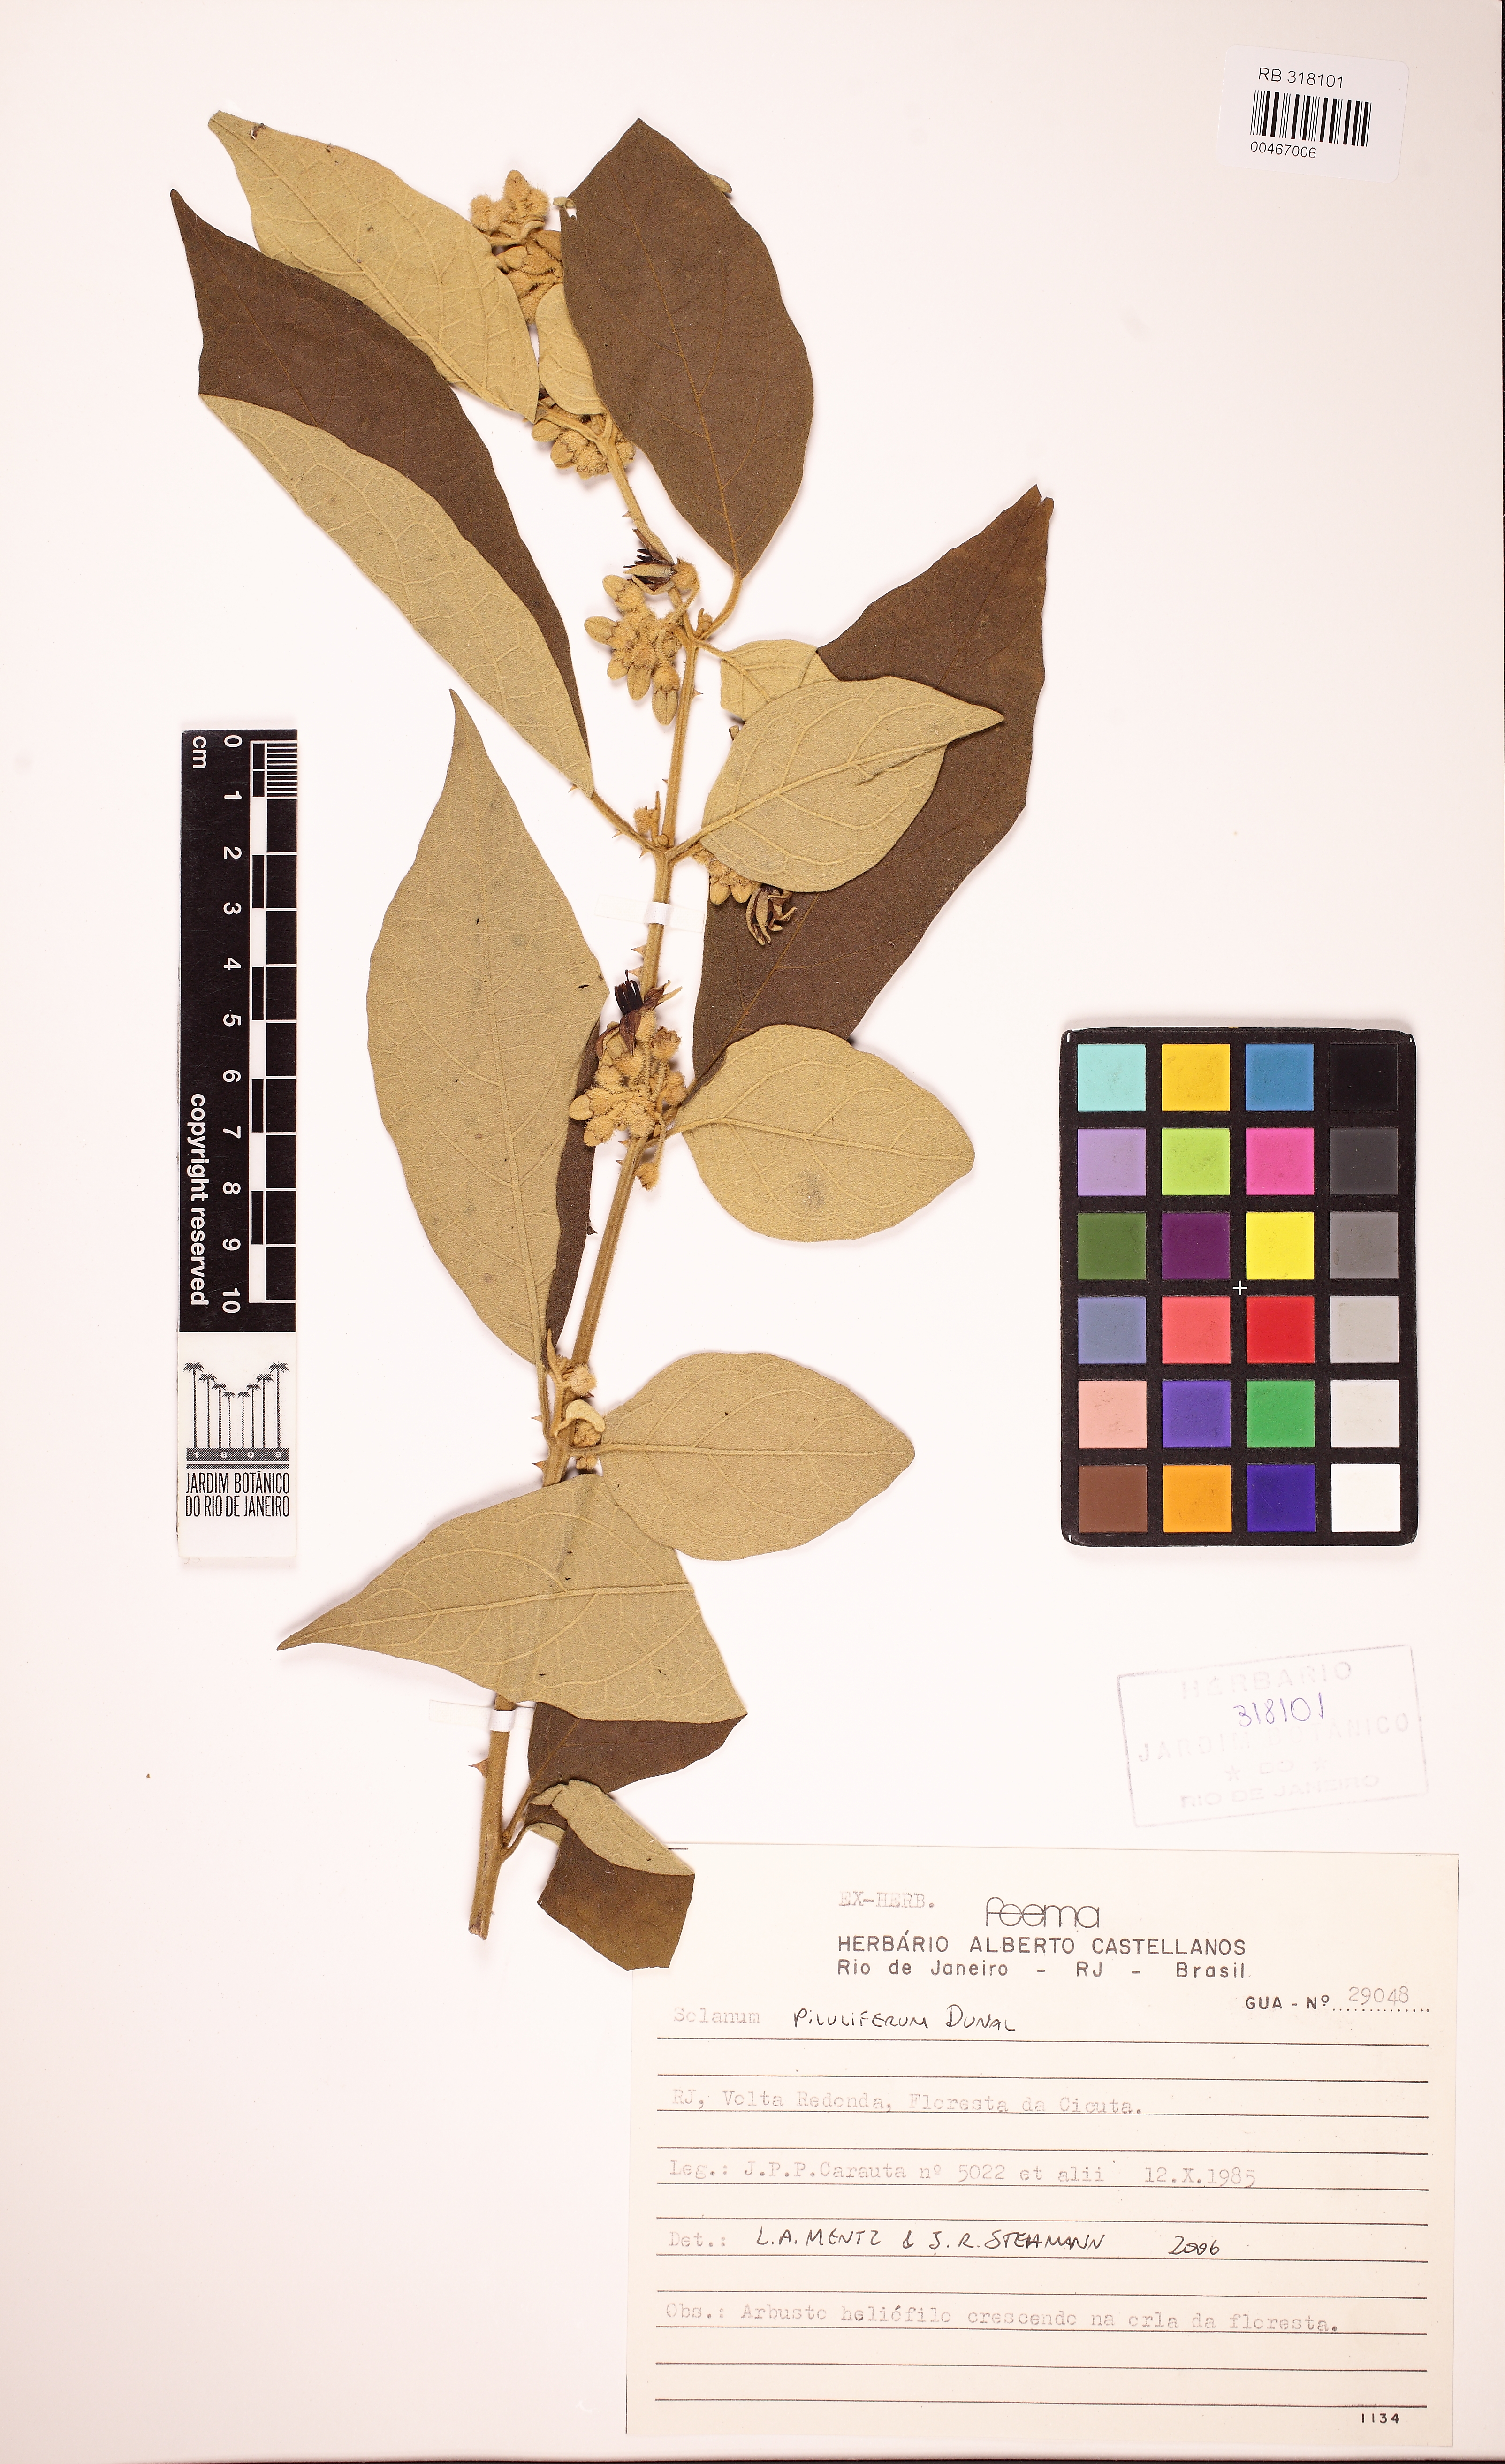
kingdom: Plantae
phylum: Tracheophyta
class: Magnoliopsida
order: Solanales
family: Solanaceae
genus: Solanum
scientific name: Solanum piluliferum
